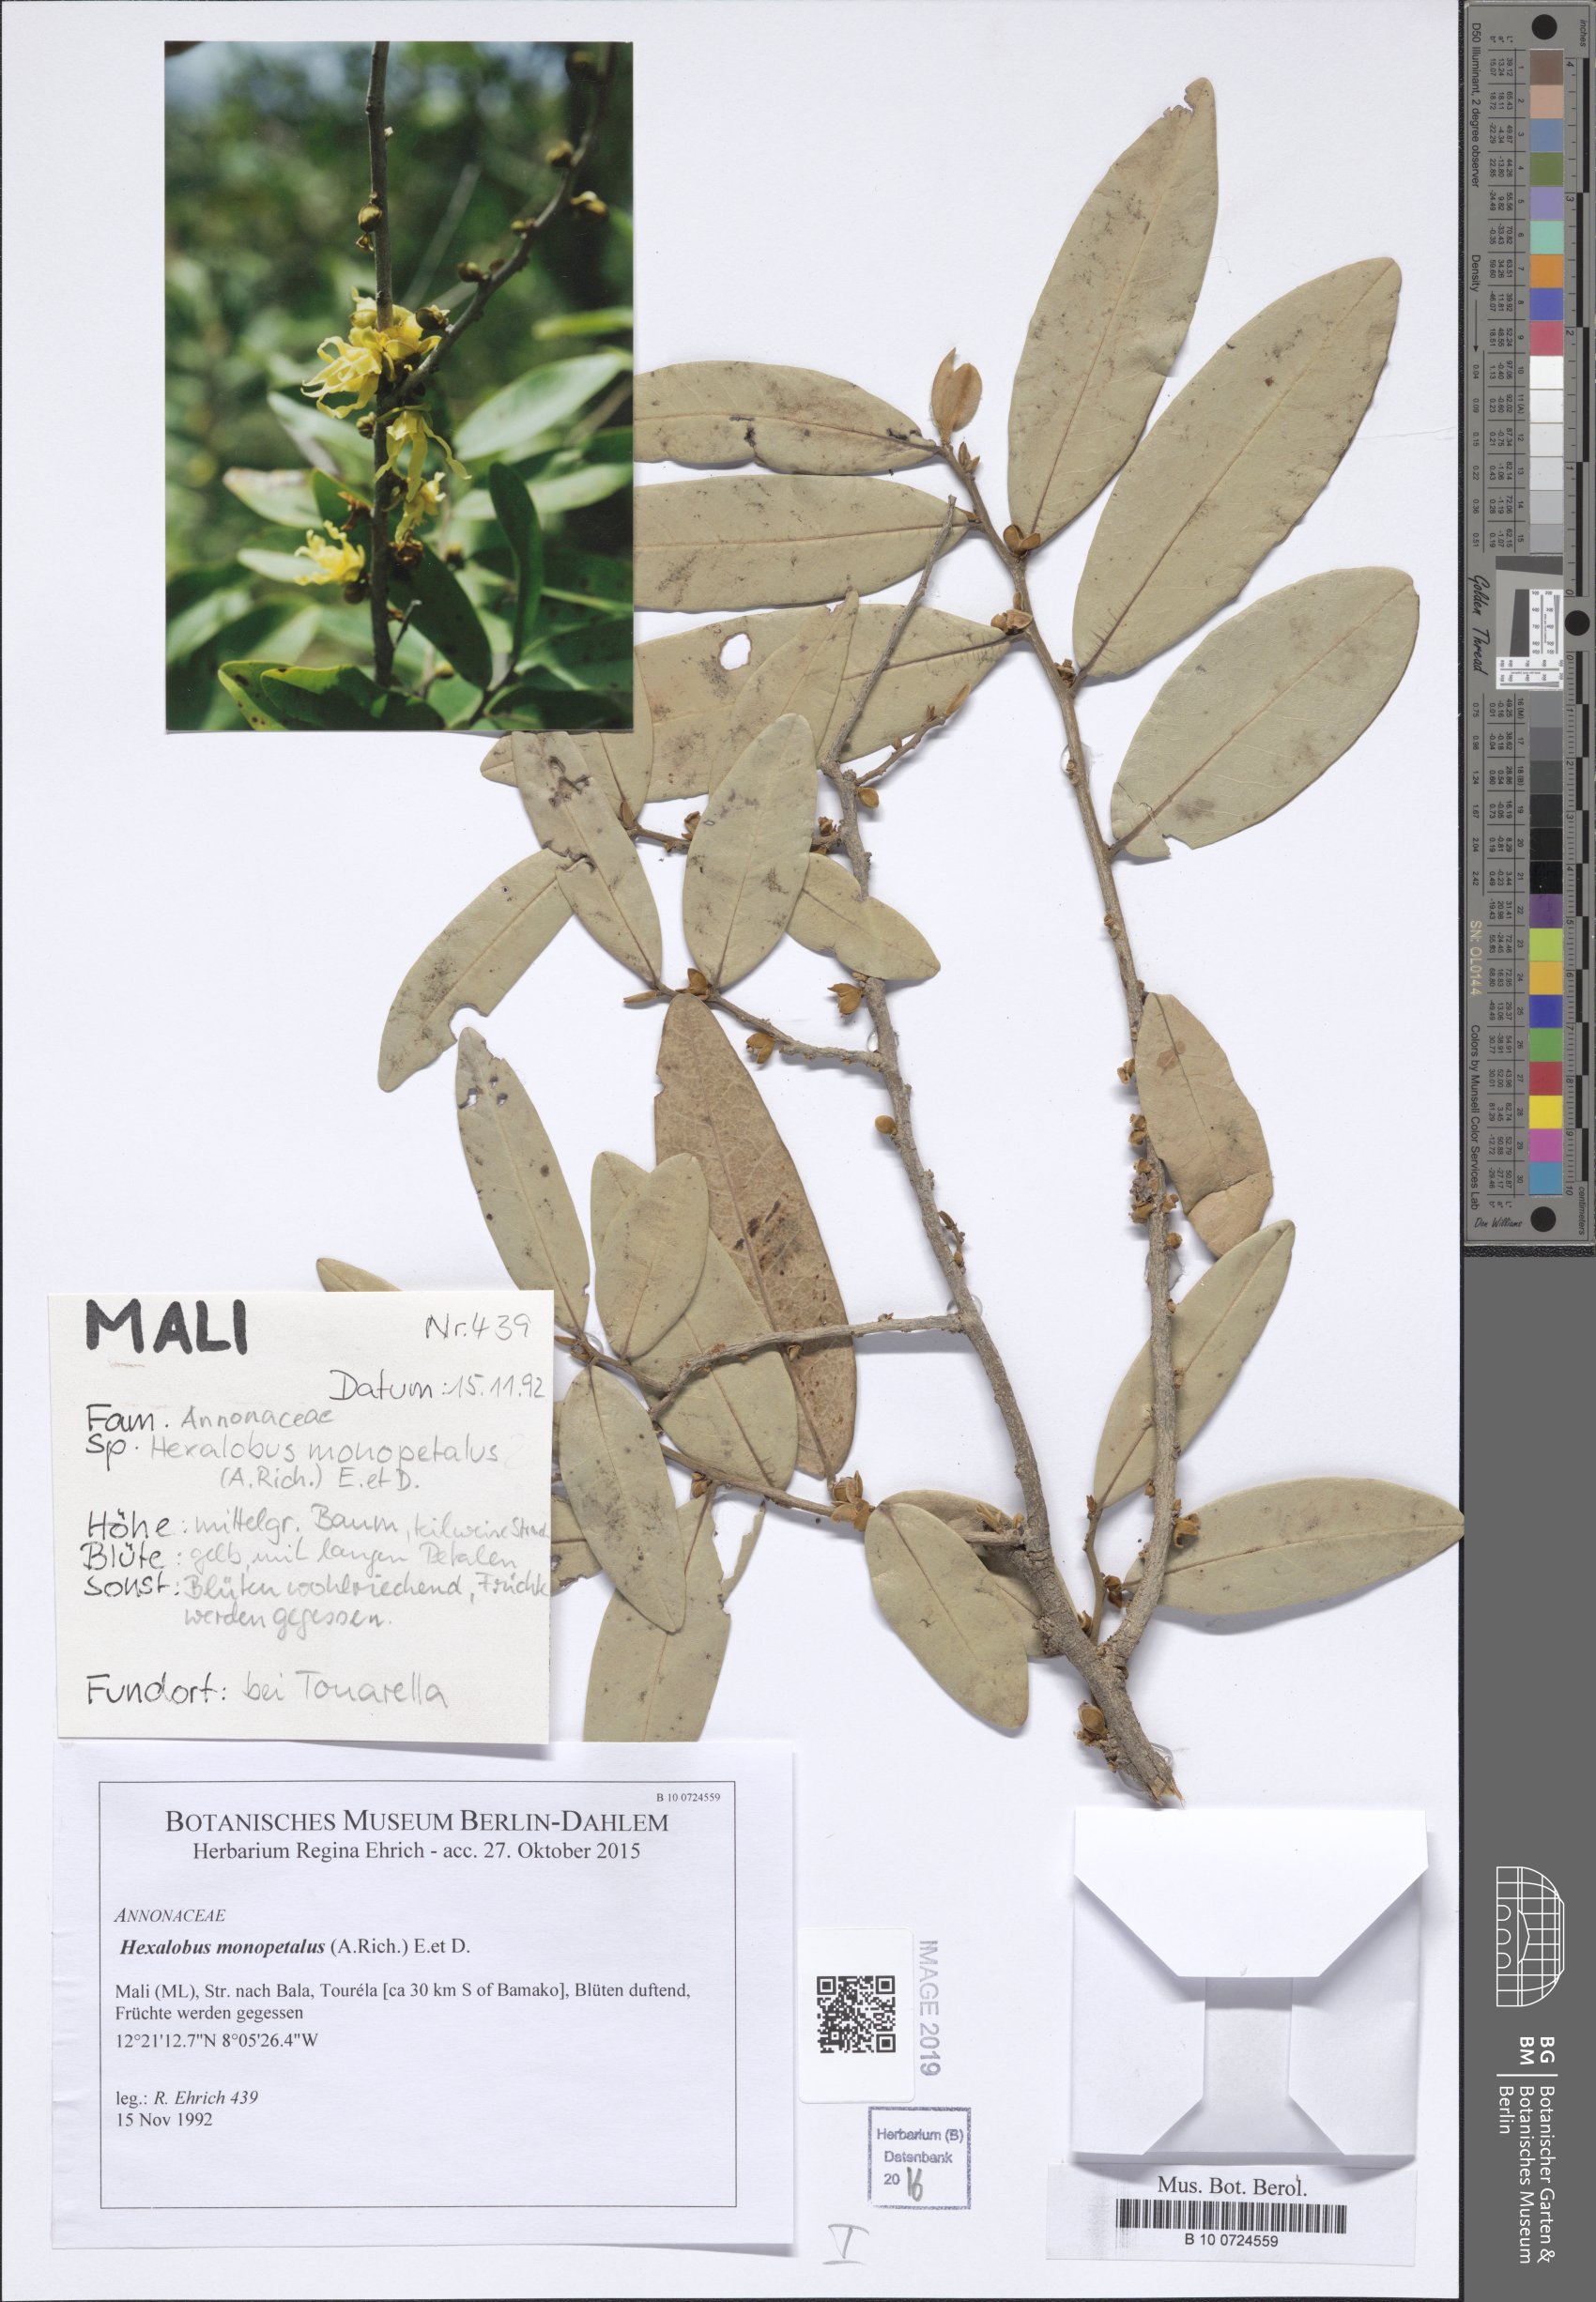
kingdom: Plantae
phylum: Tracheophyta
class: Magnoliopsida
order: Magnoliales
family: Annonaceae
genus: Hexalobus
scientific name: Hexalobus monopetalus
